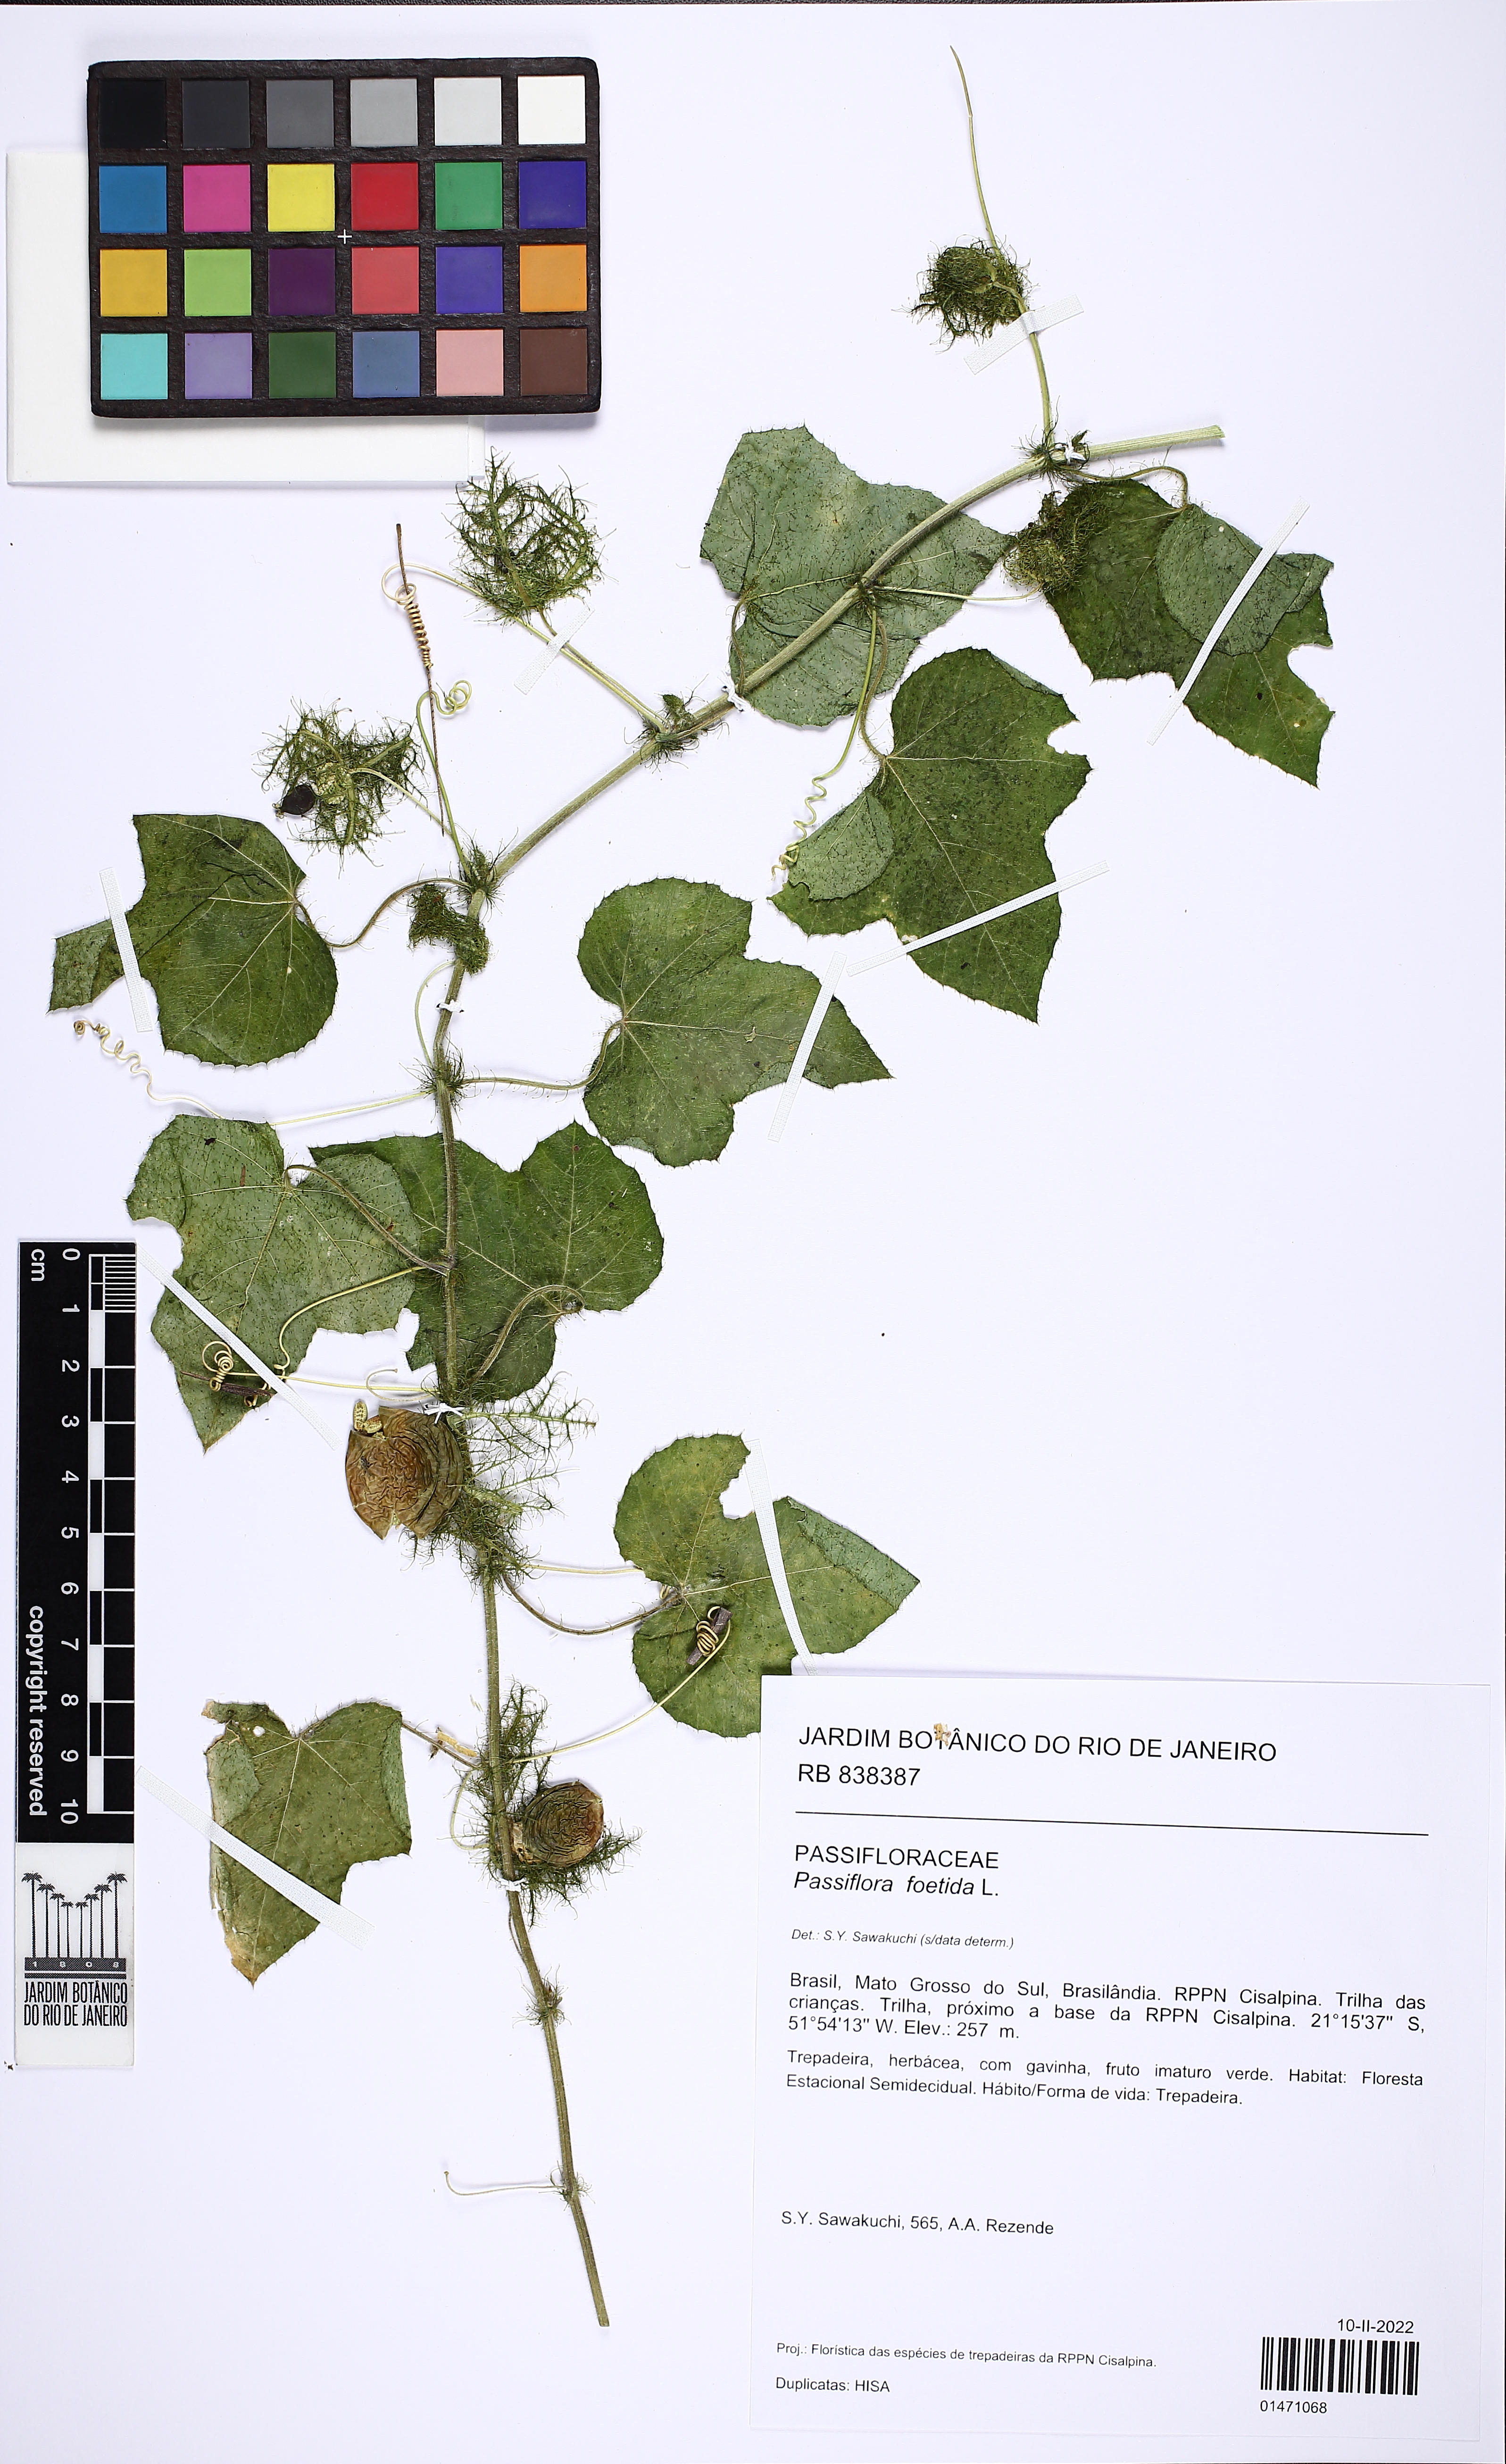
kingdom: Plantae
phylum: Tracheophyta
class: Magnoliopsida
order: Malpighiales
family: Passifloraceae
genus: Passiflora
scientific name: Passiflora foetida
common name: Fetid passionflower
